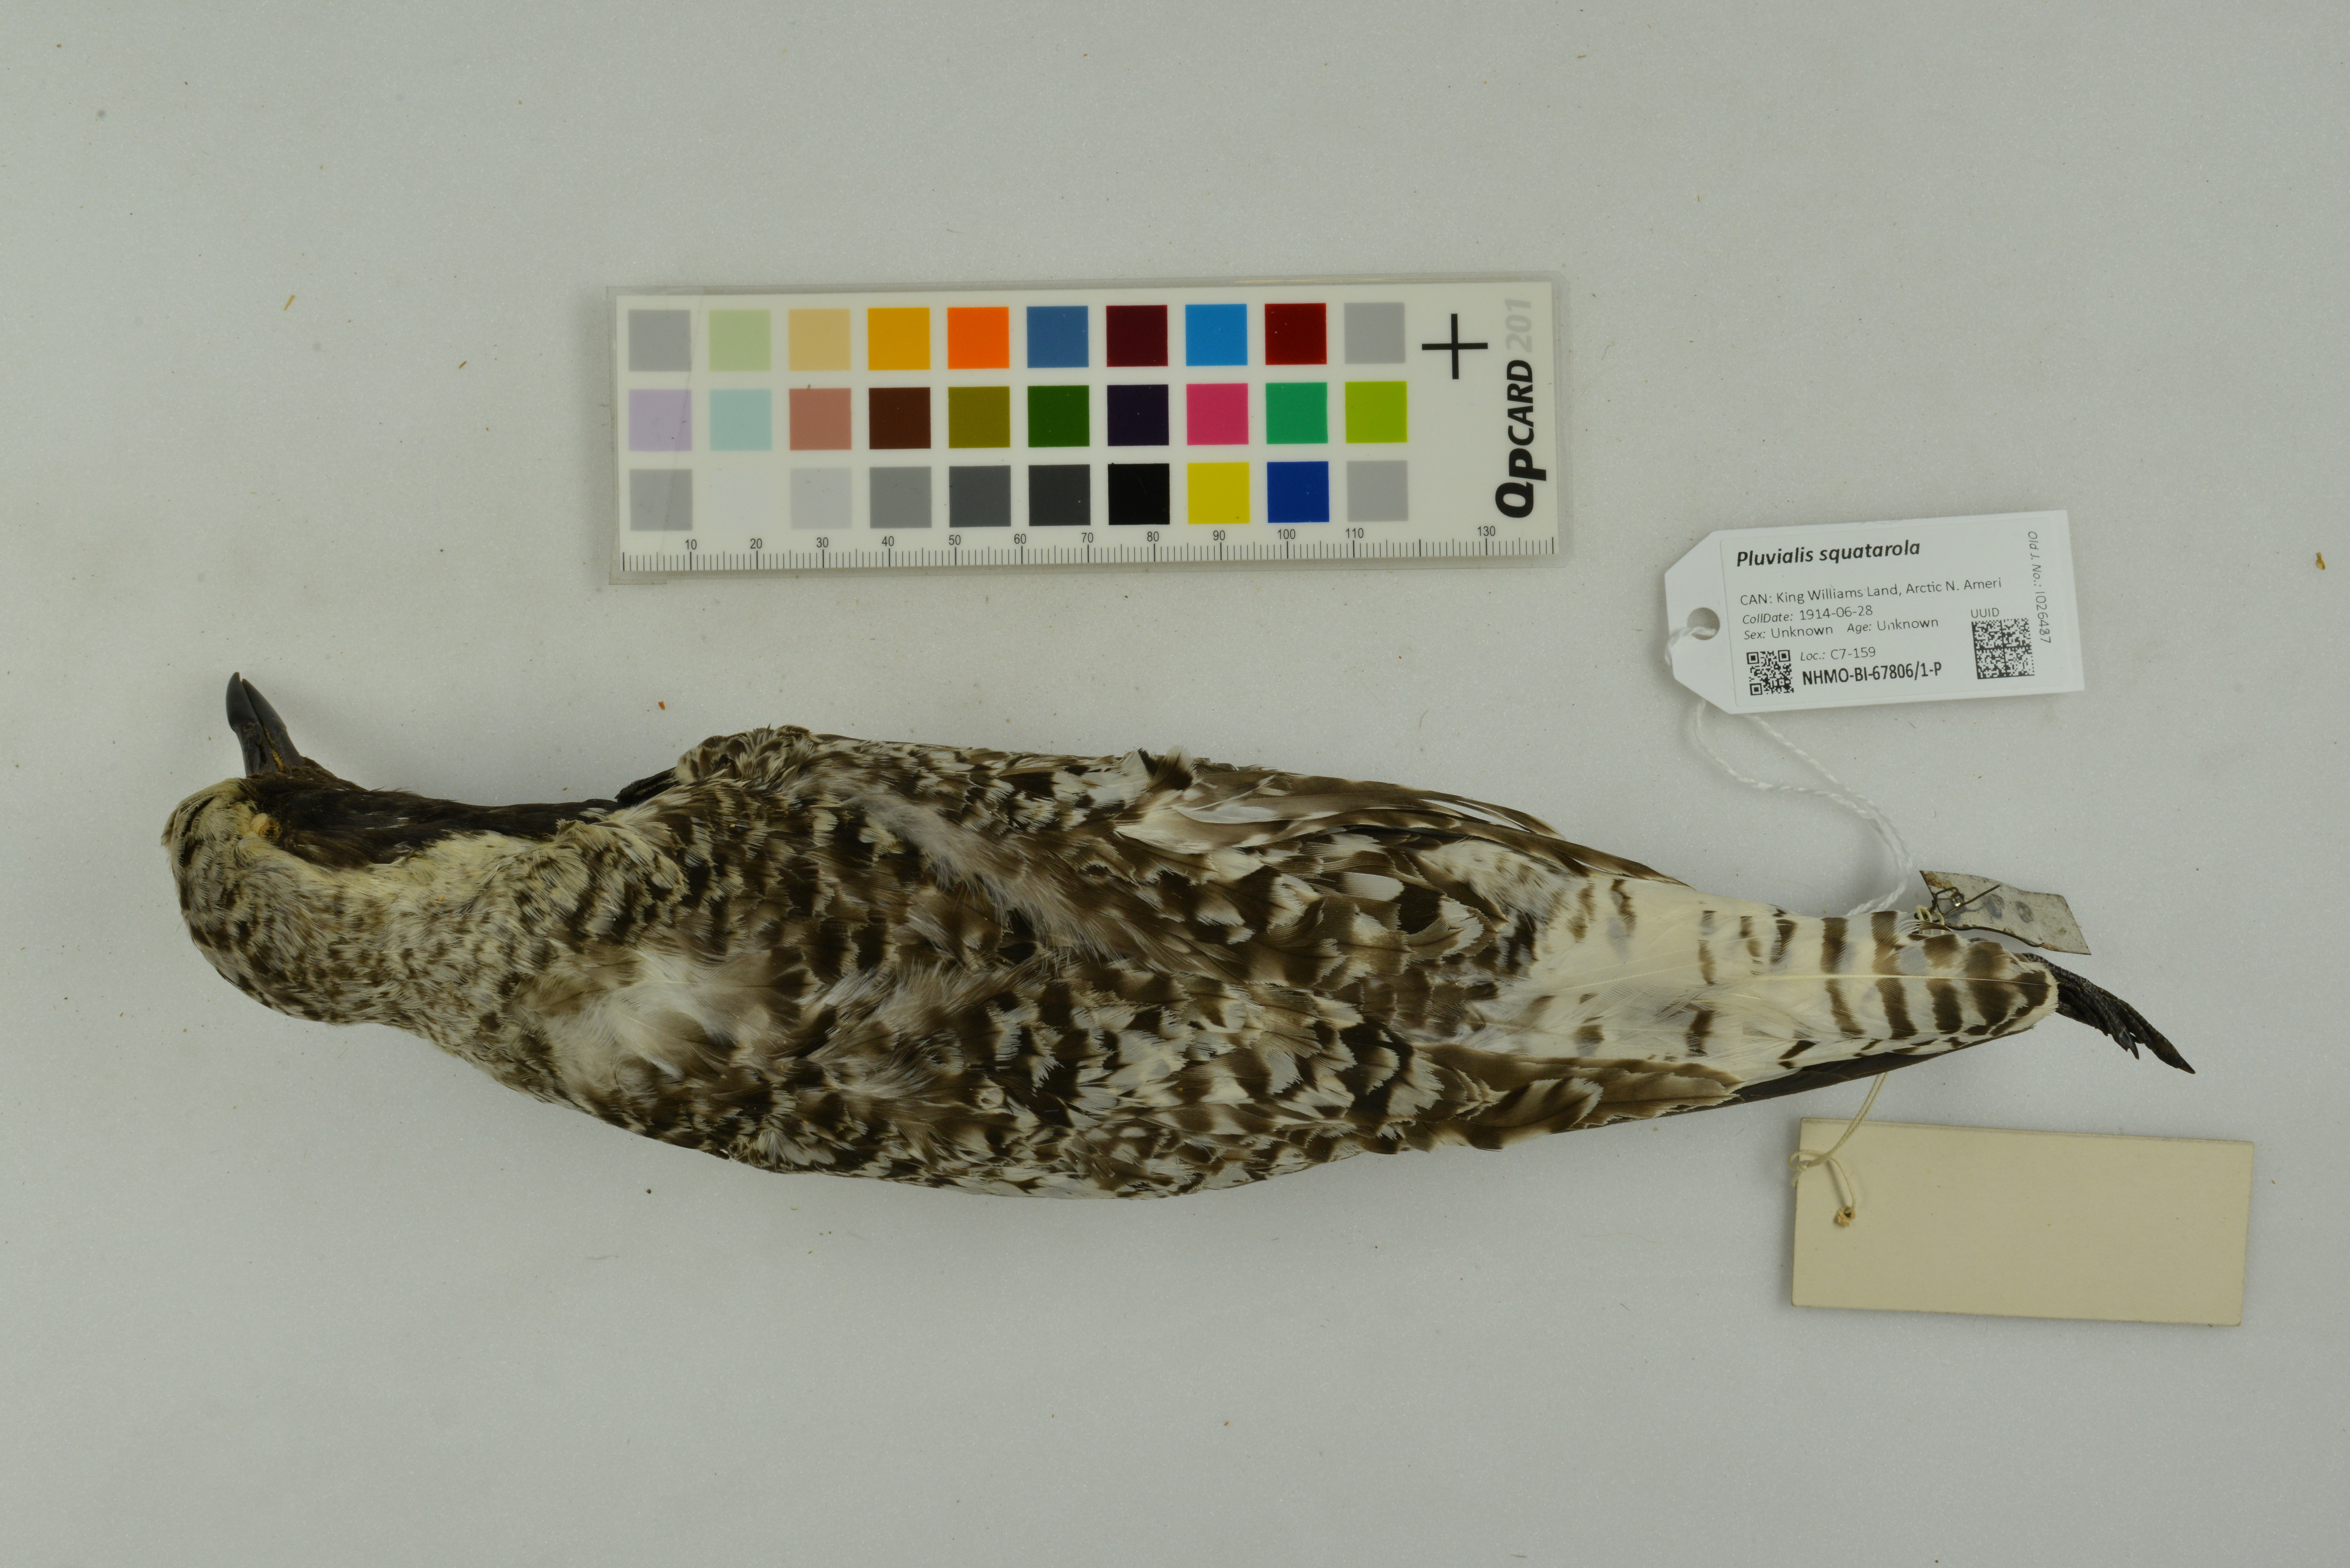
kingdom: Animalia
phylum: Chordata
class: Aves
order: Charadriiformes
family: Charadriidae
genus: Pluvialis
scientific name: Pluvialis squatarola
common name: Grey plover
